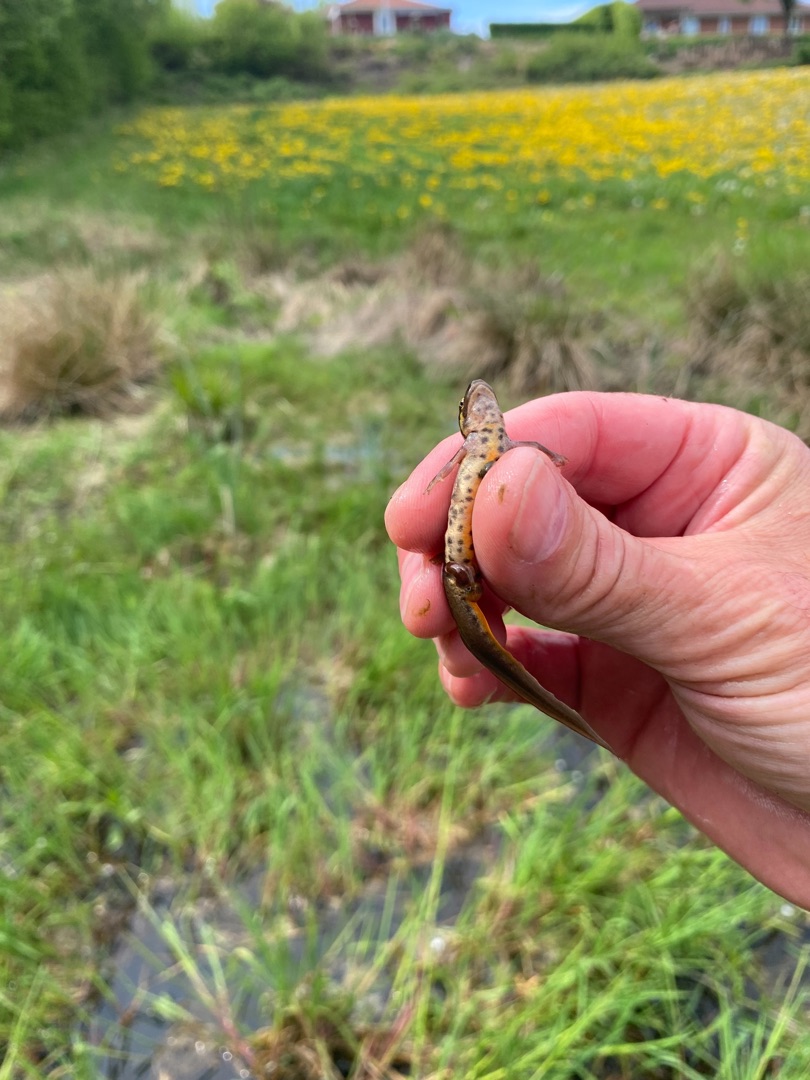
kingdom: Animalia
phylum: Chordata
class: Amphibia
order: Caudata
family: Salamandridae
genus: Lissotriton
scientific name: Lissotriton vulgaris
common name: Lille vandsalamander
